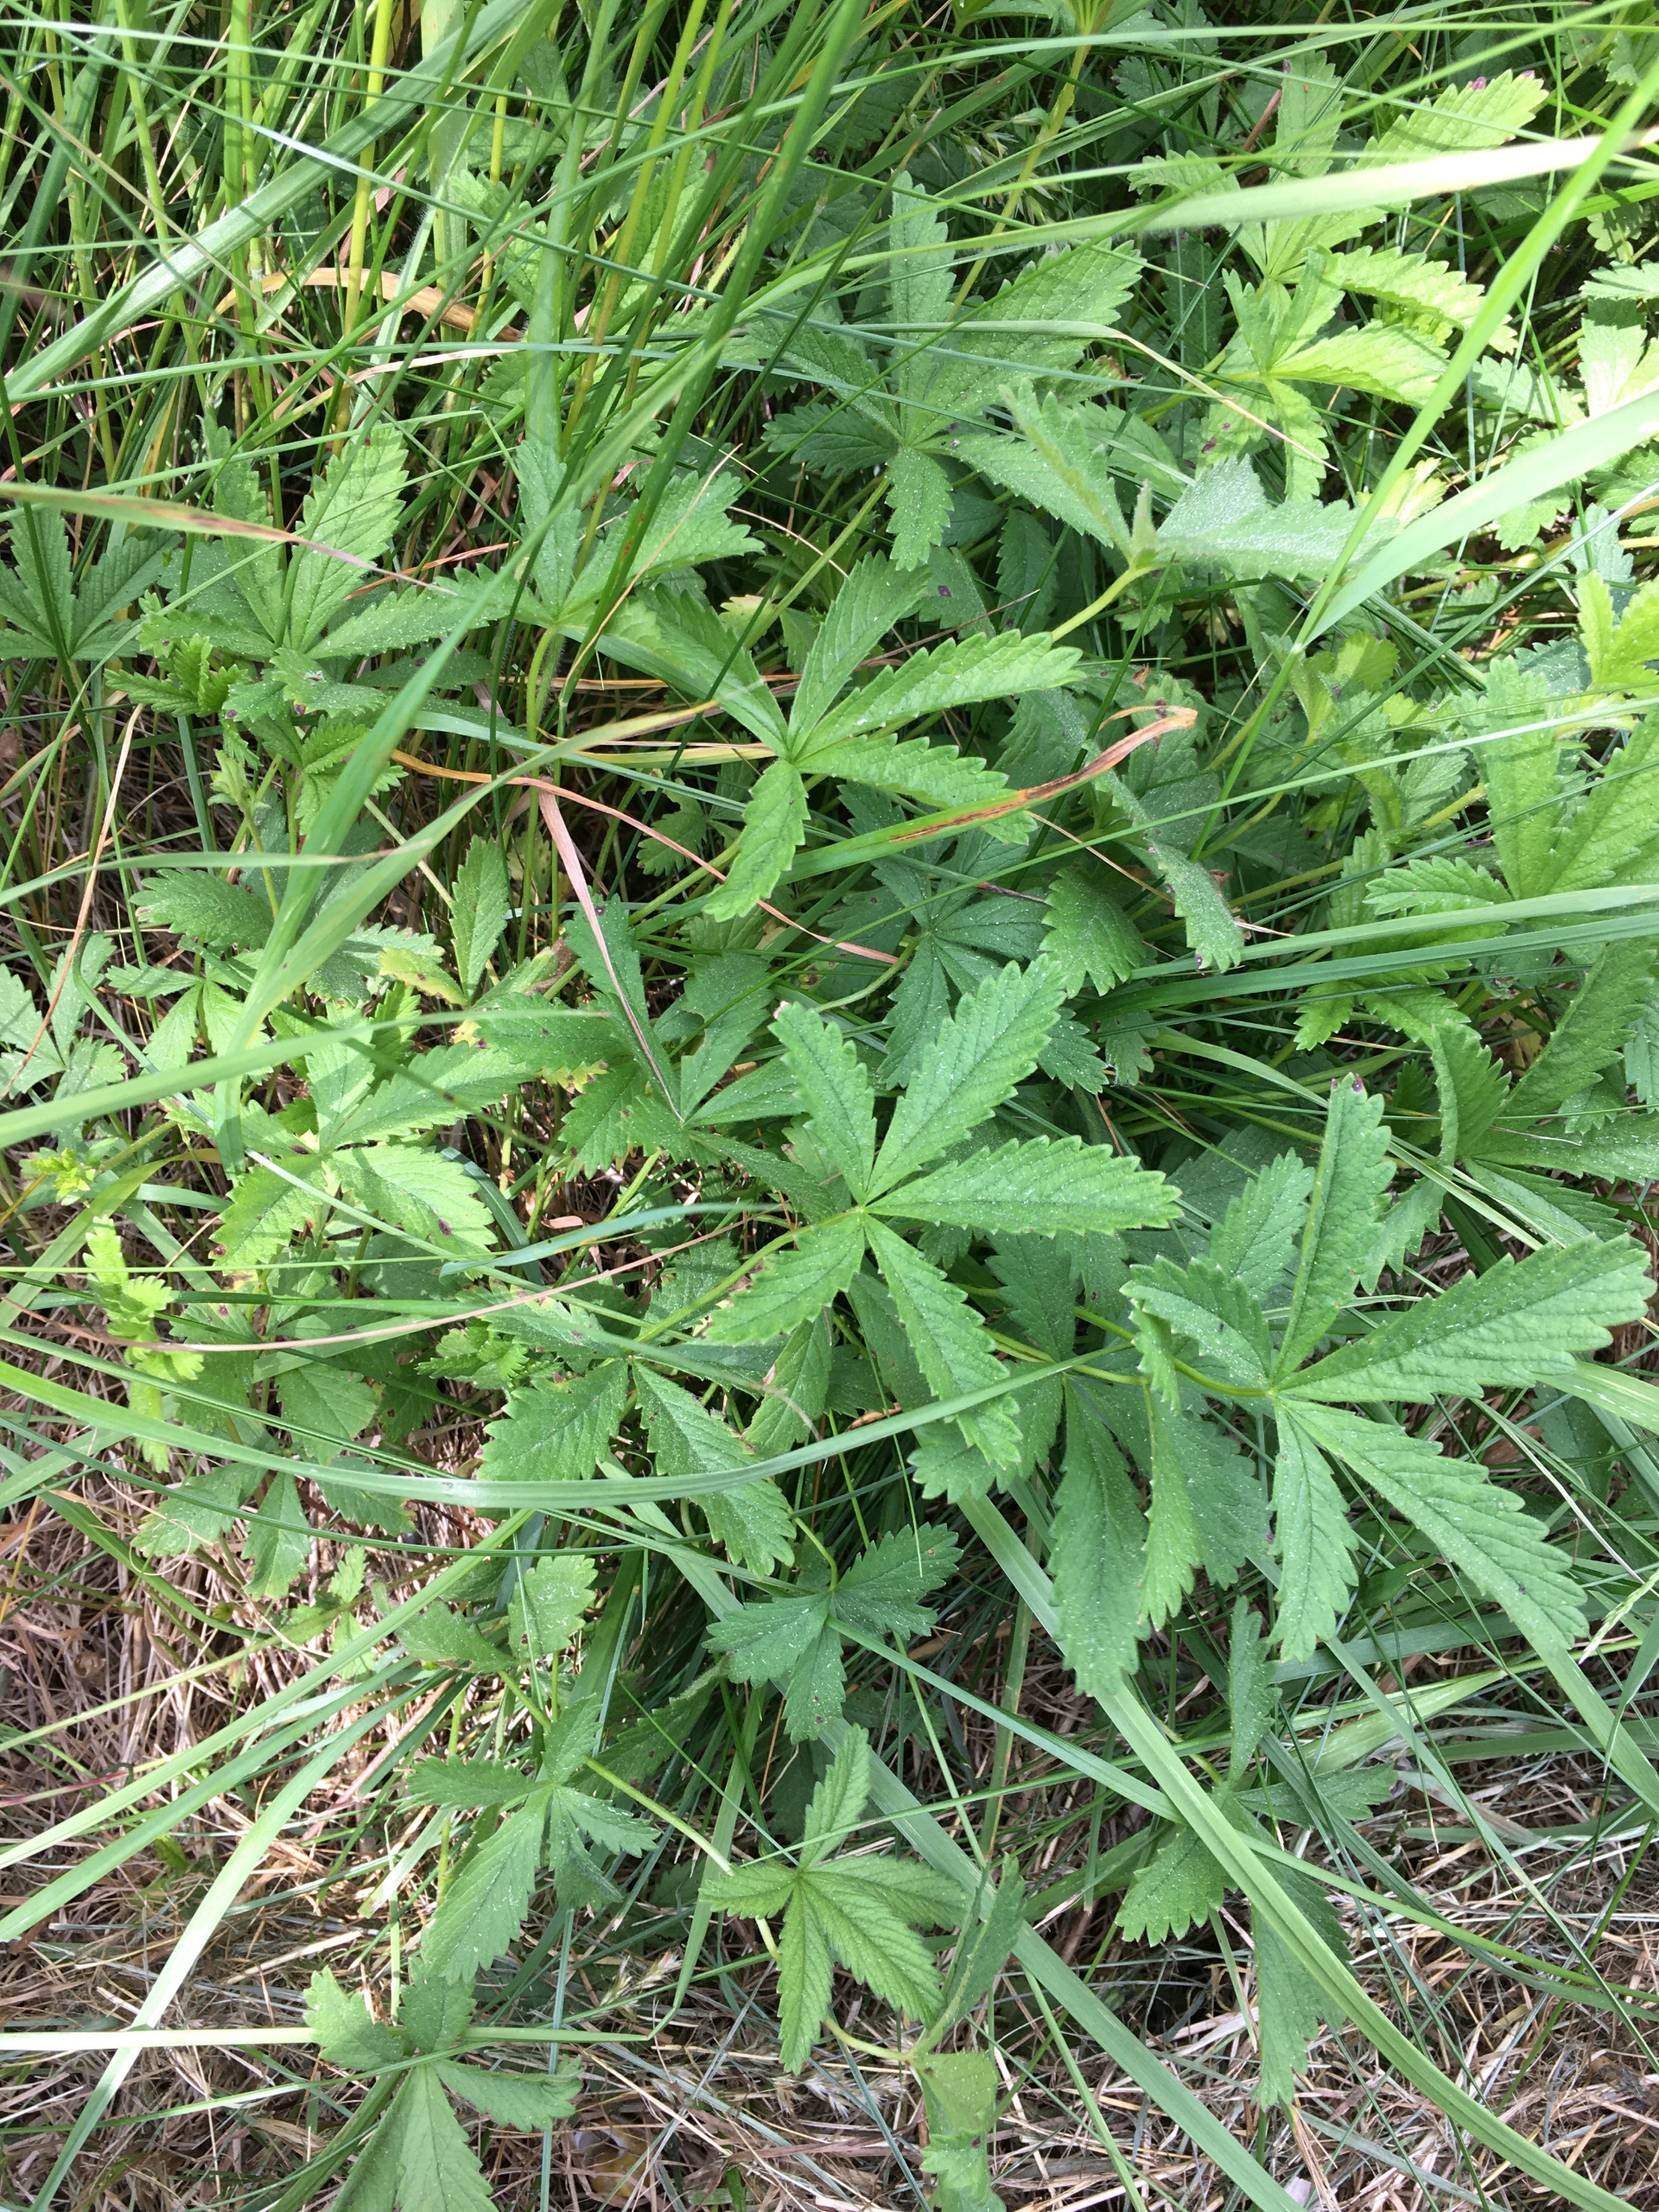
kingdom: Plantae
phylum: Tracheophyta
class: Magnoliopsida
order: Rosales
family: Rosaceae
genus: Potentilla
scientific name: Potentilla reptans
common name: Krybende potentil
